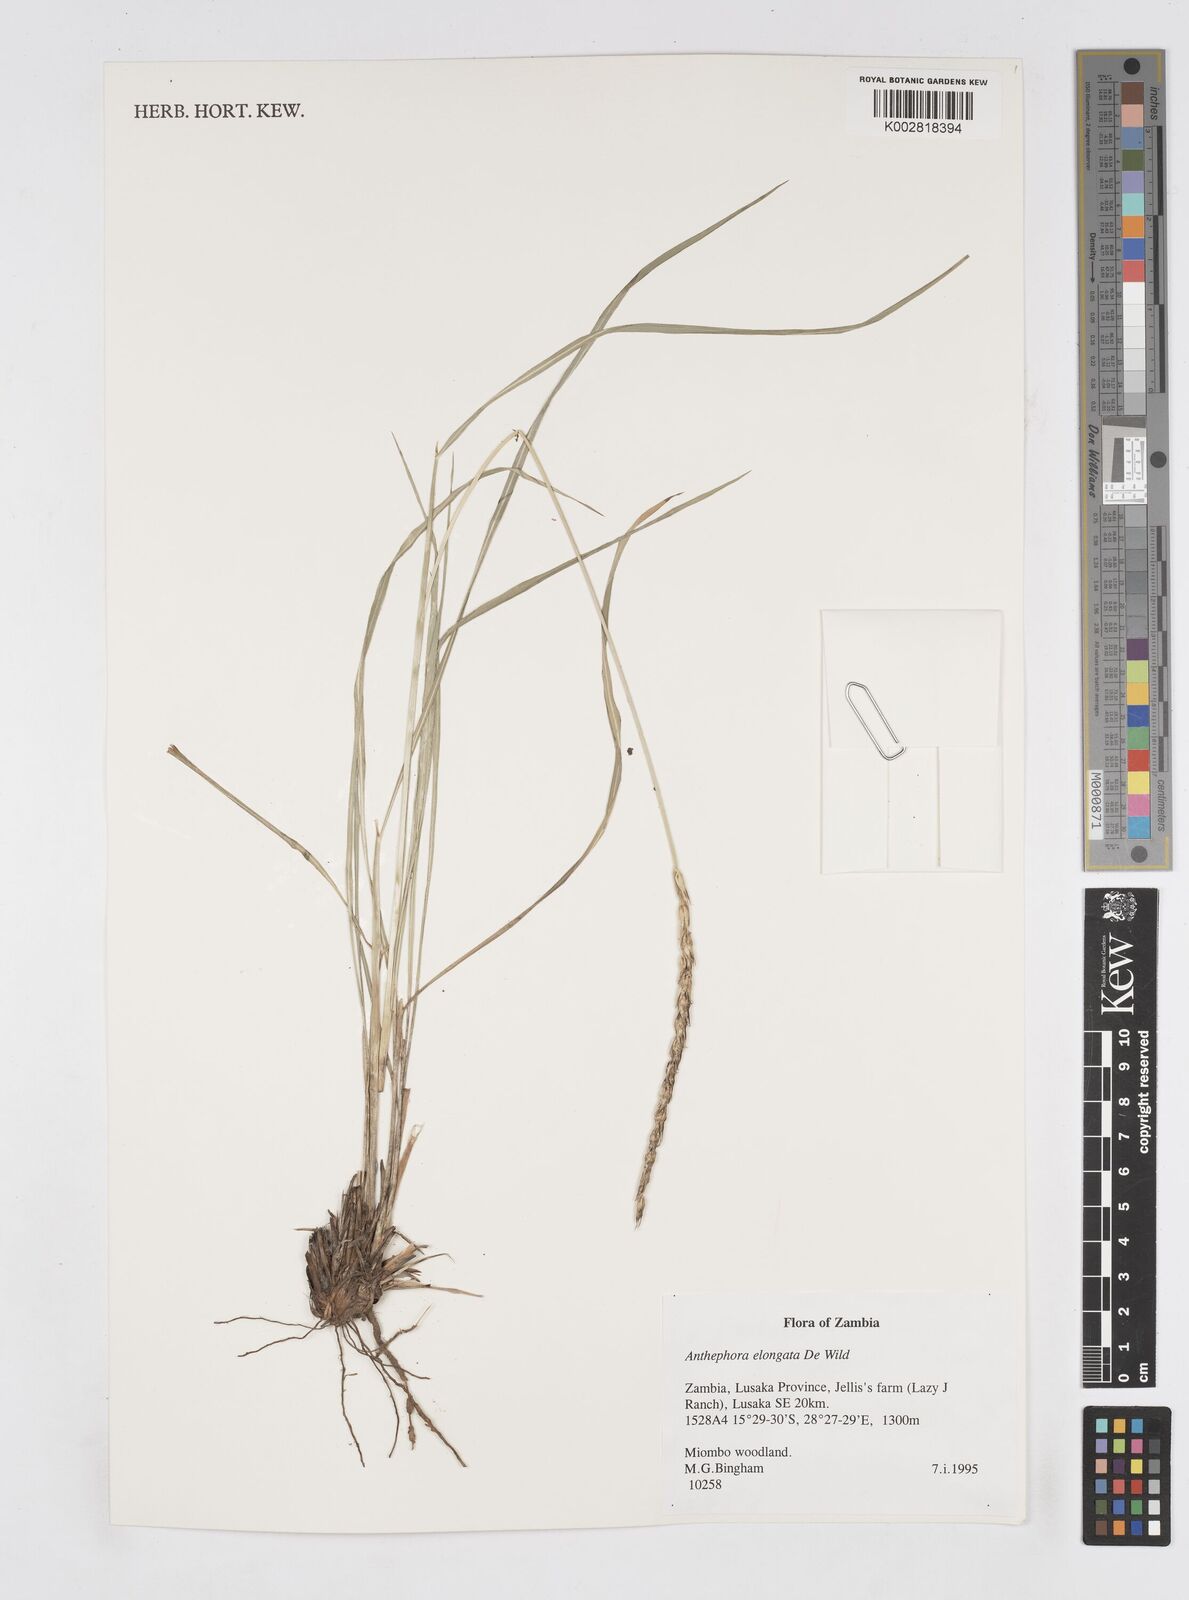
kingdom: Plantae
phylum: Tracheophyta
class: Liliopsida
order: Poales
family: Poaceae
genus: Anthephora
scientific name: Anthephora elongata
